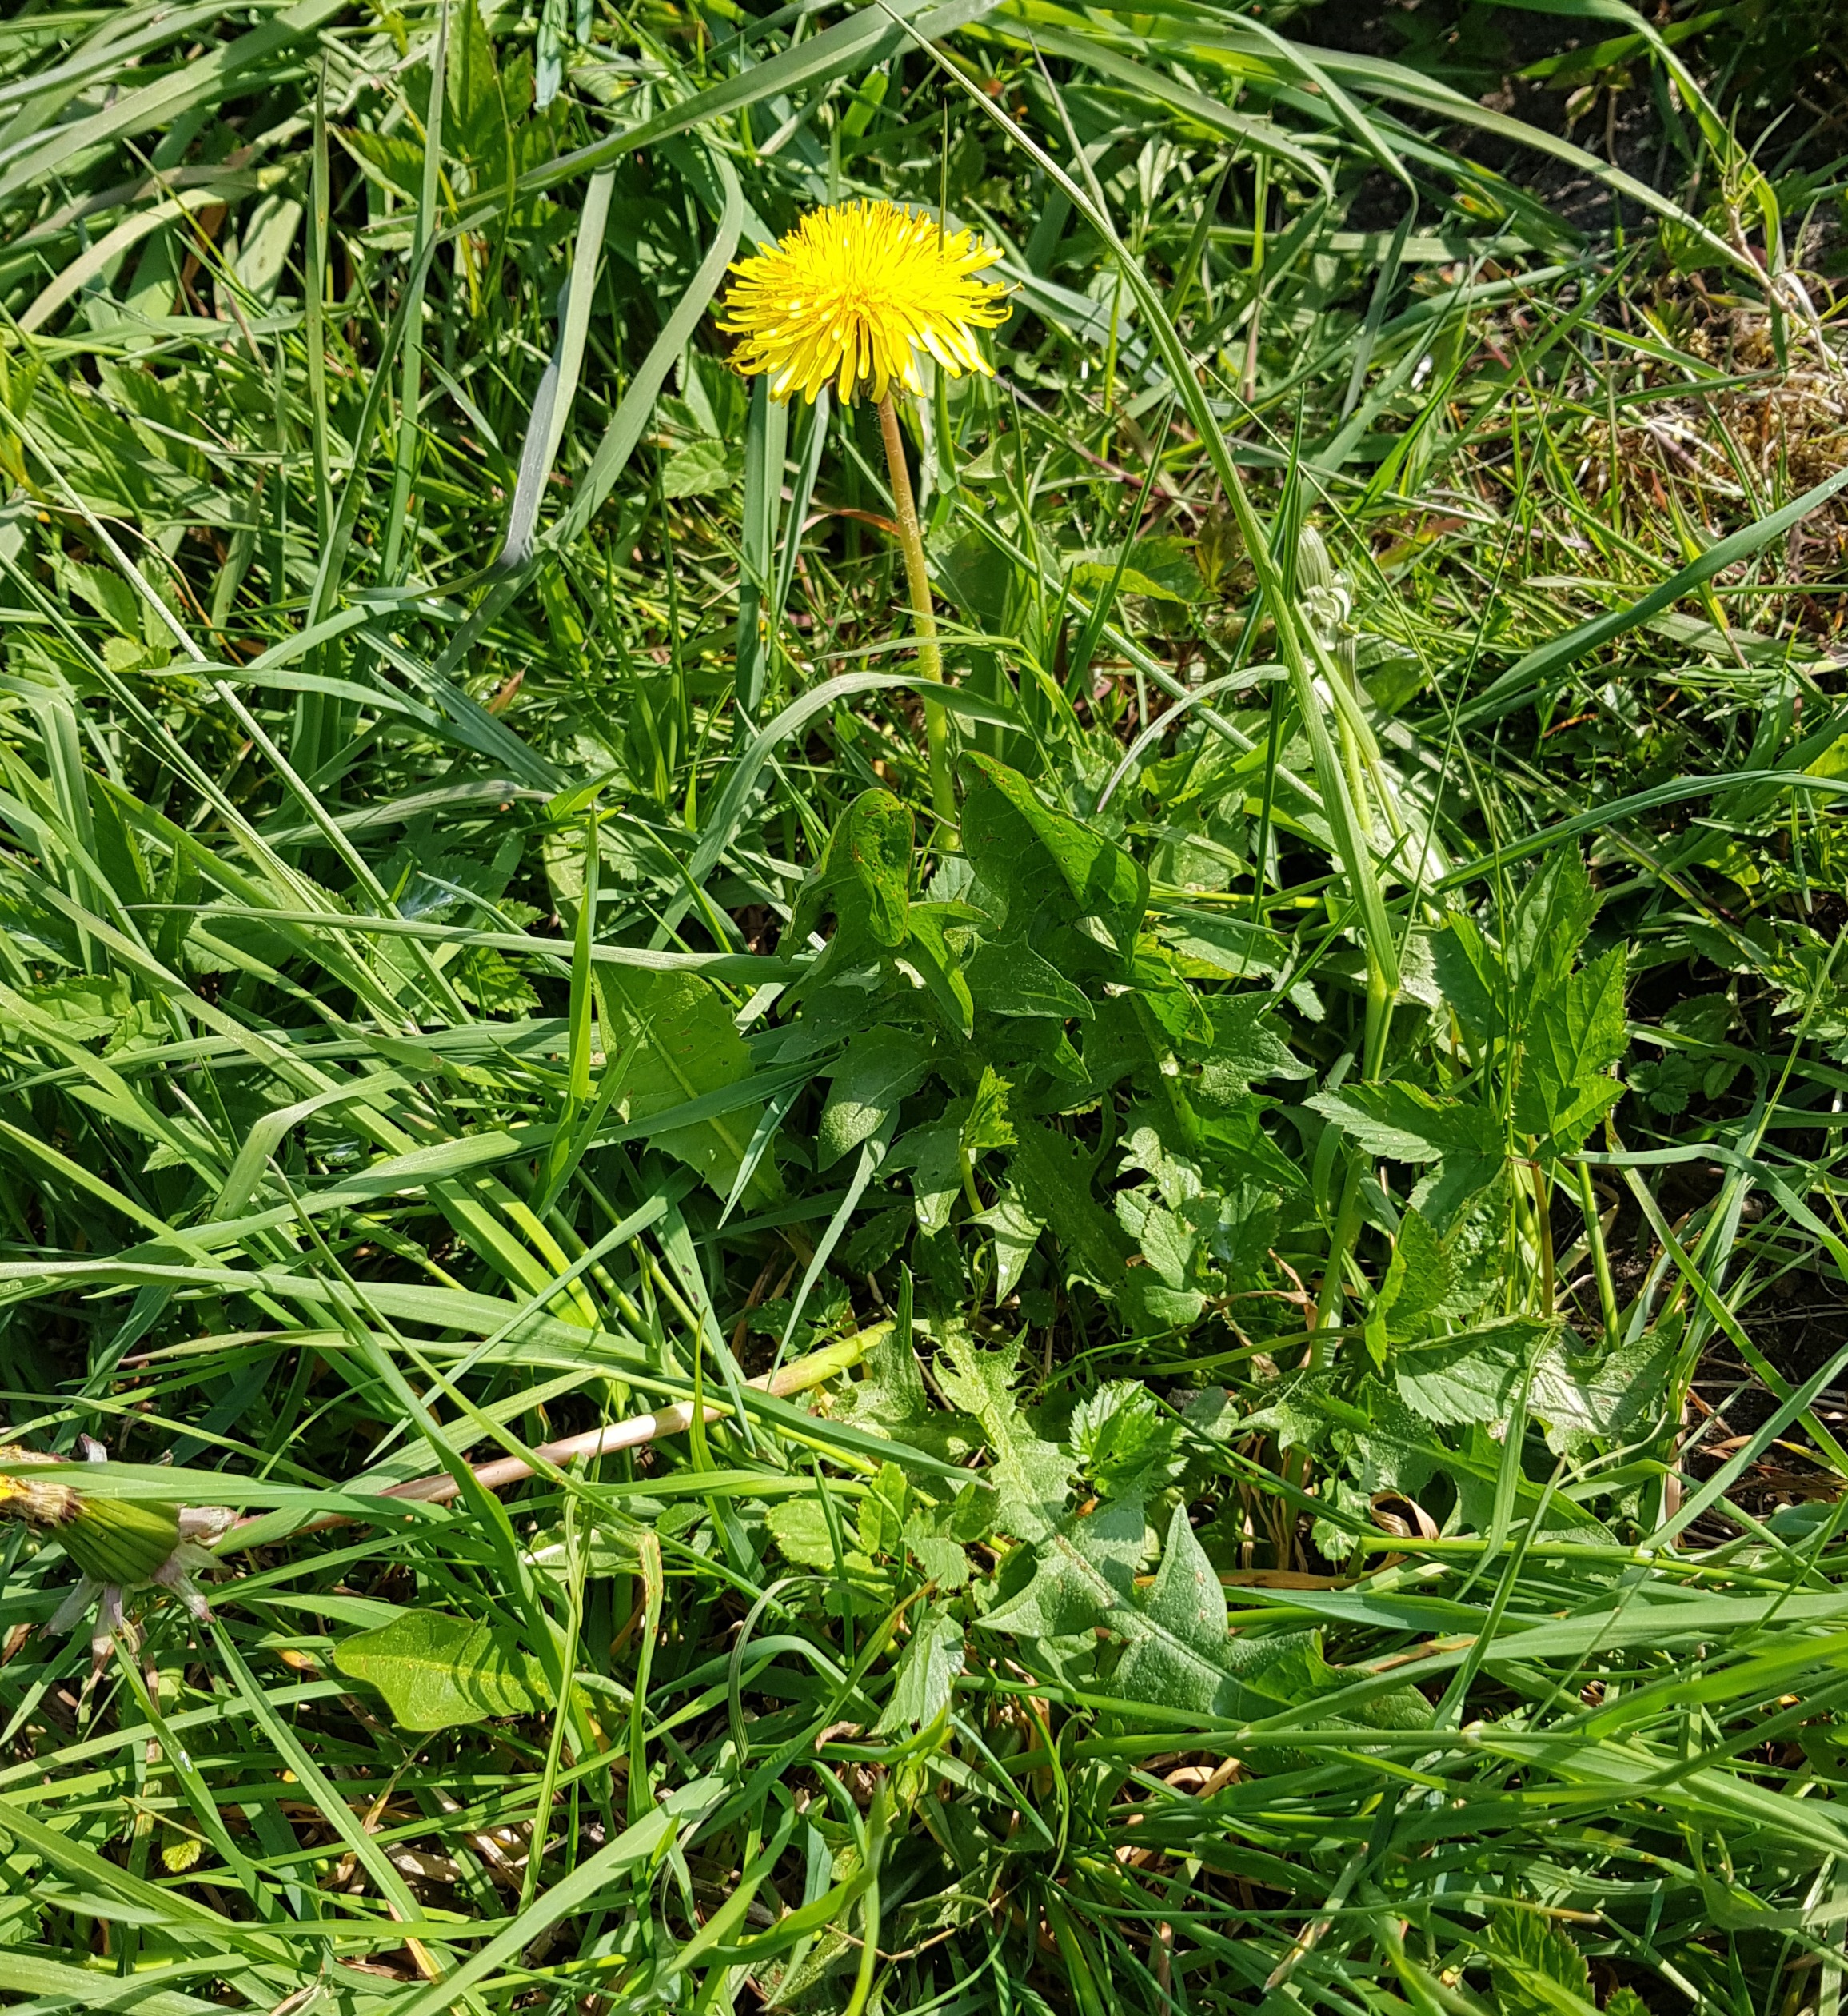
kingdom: Plantae
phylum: Tracheophyta
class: Magnoliopsida
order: Asterales
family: Asteraceae
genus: Taraxacum
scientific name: Taraxacum
